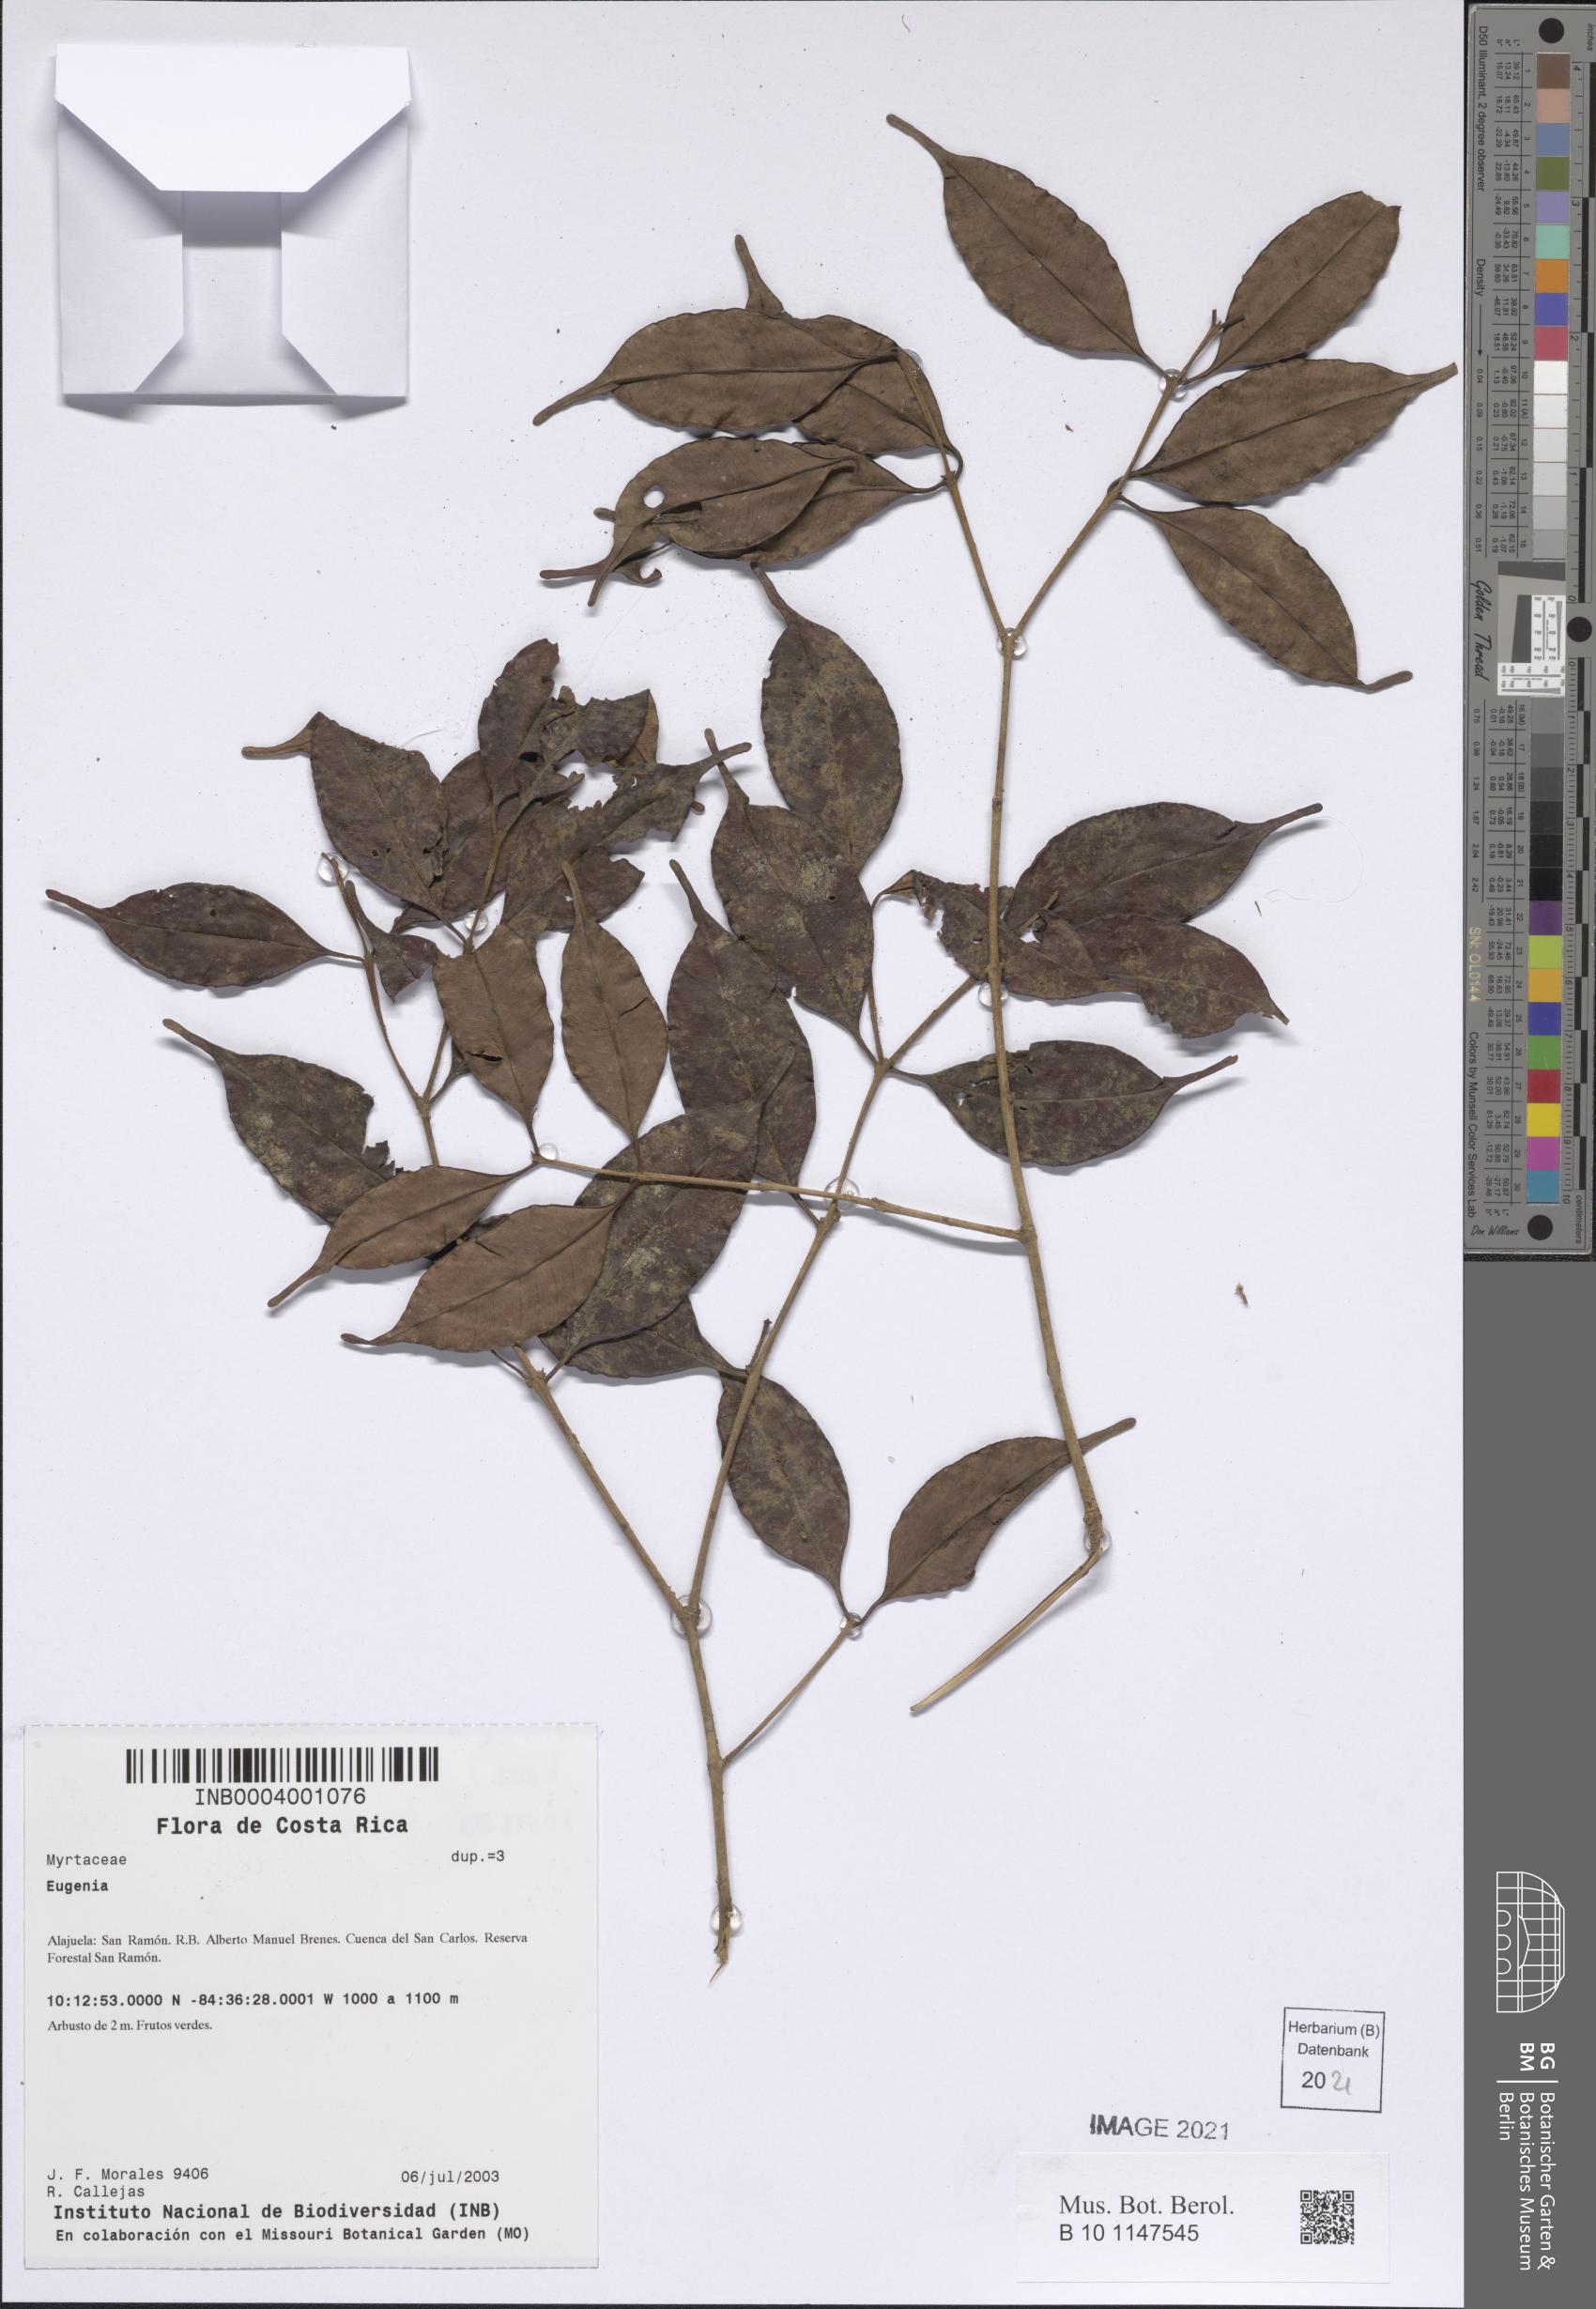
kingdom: Plantae
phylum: Tracheophyta
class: Magnoliopsida
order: Myrtales
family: Myrtaceae
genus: Eugenia
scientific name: Eugenia
